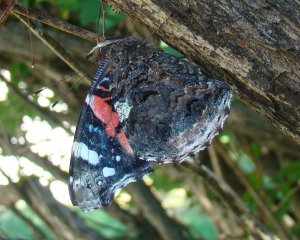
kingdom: Animalia
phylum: Arthropoda
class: Insecta
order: Lepidoptera
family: Nymphalidae
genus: Vanessa
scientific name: Vanessa atalanta
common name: Red Admiral
